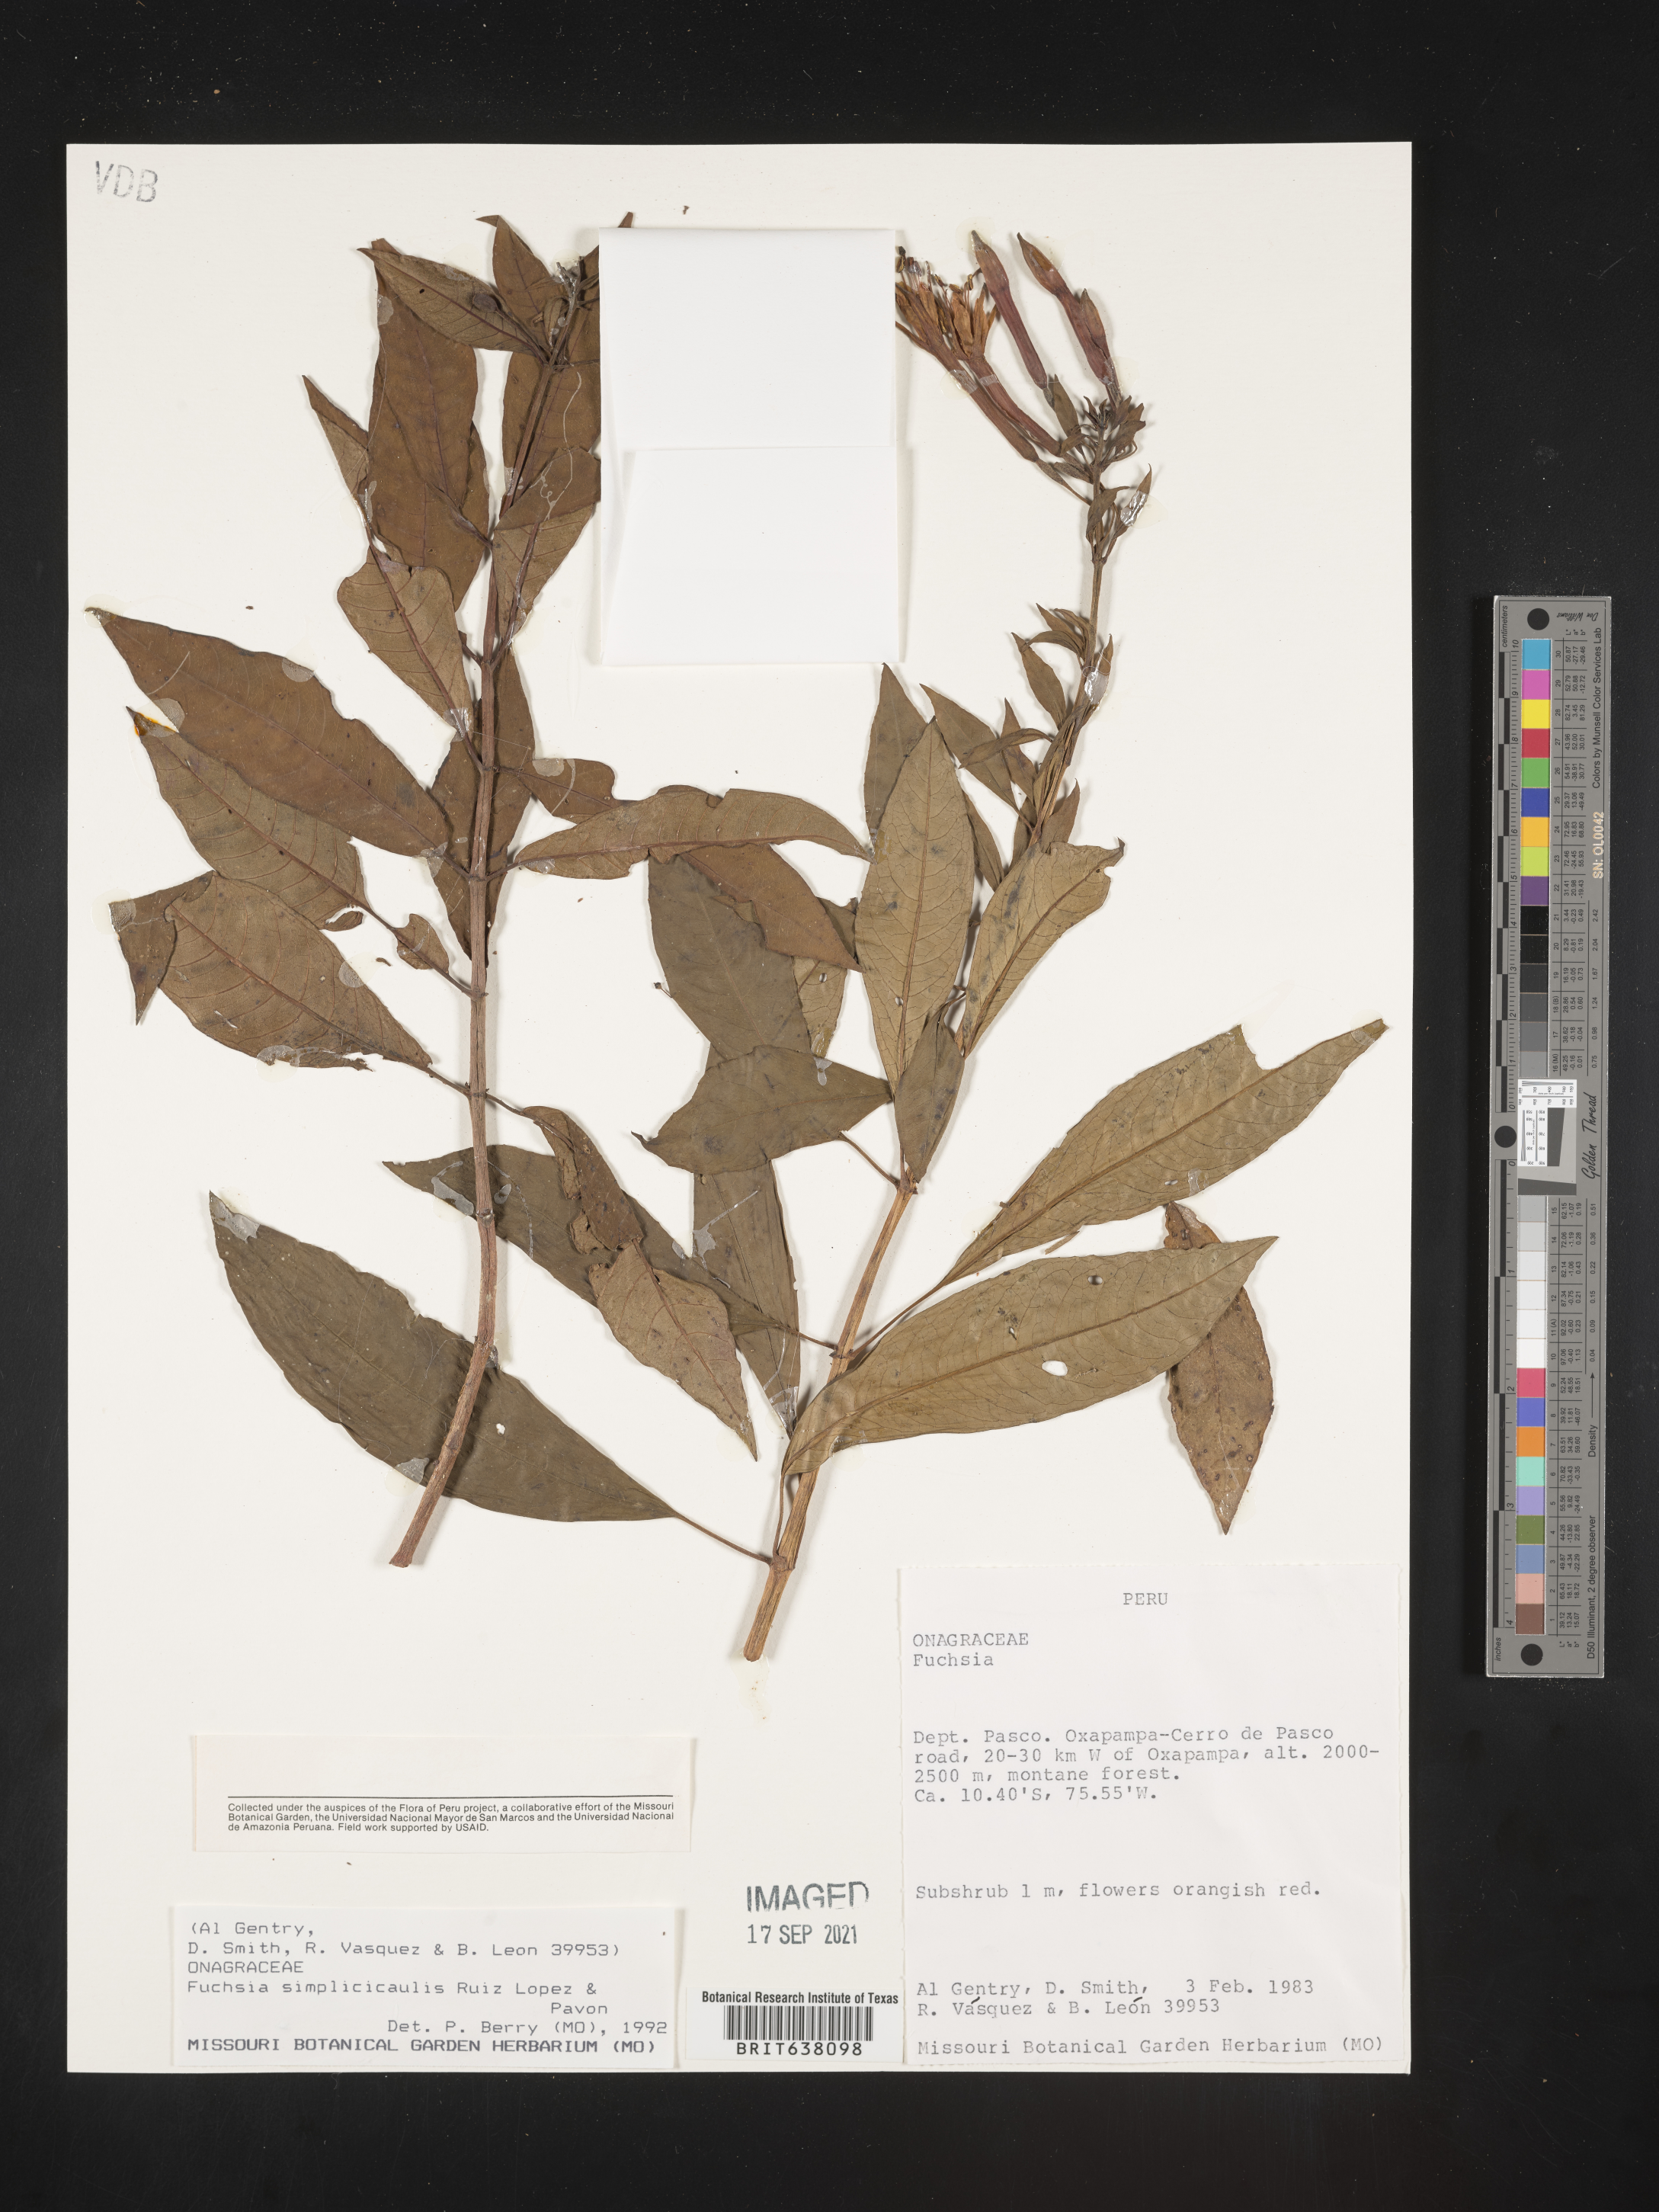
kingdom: Plantae
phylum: Tracheophyta
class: Magnoliopsida
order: Myrtales
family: Onagraceae
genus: Fuchsia
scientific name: Fuchsia
